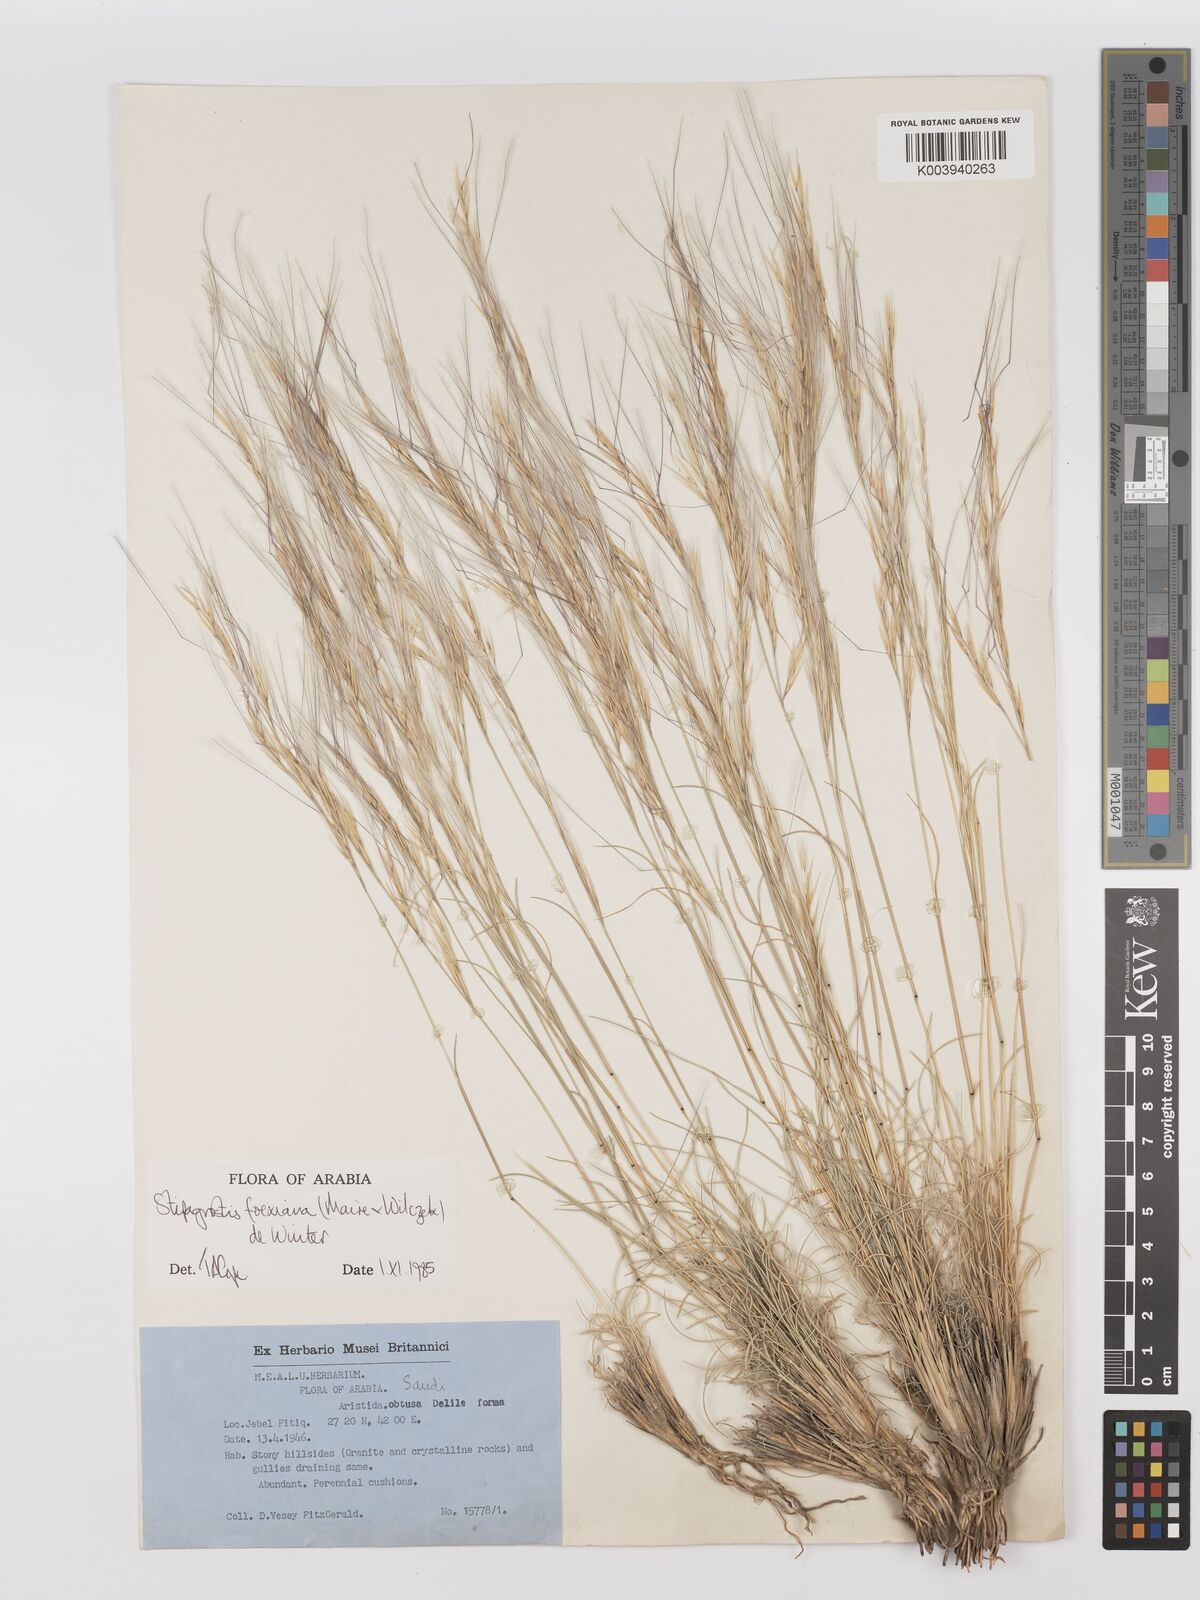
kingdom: Plantae
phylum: Tracheophyta
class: Liliopsida
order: Poales
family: Poaceae
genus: Stipagrostis
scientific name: Stipagrostis foexiana
